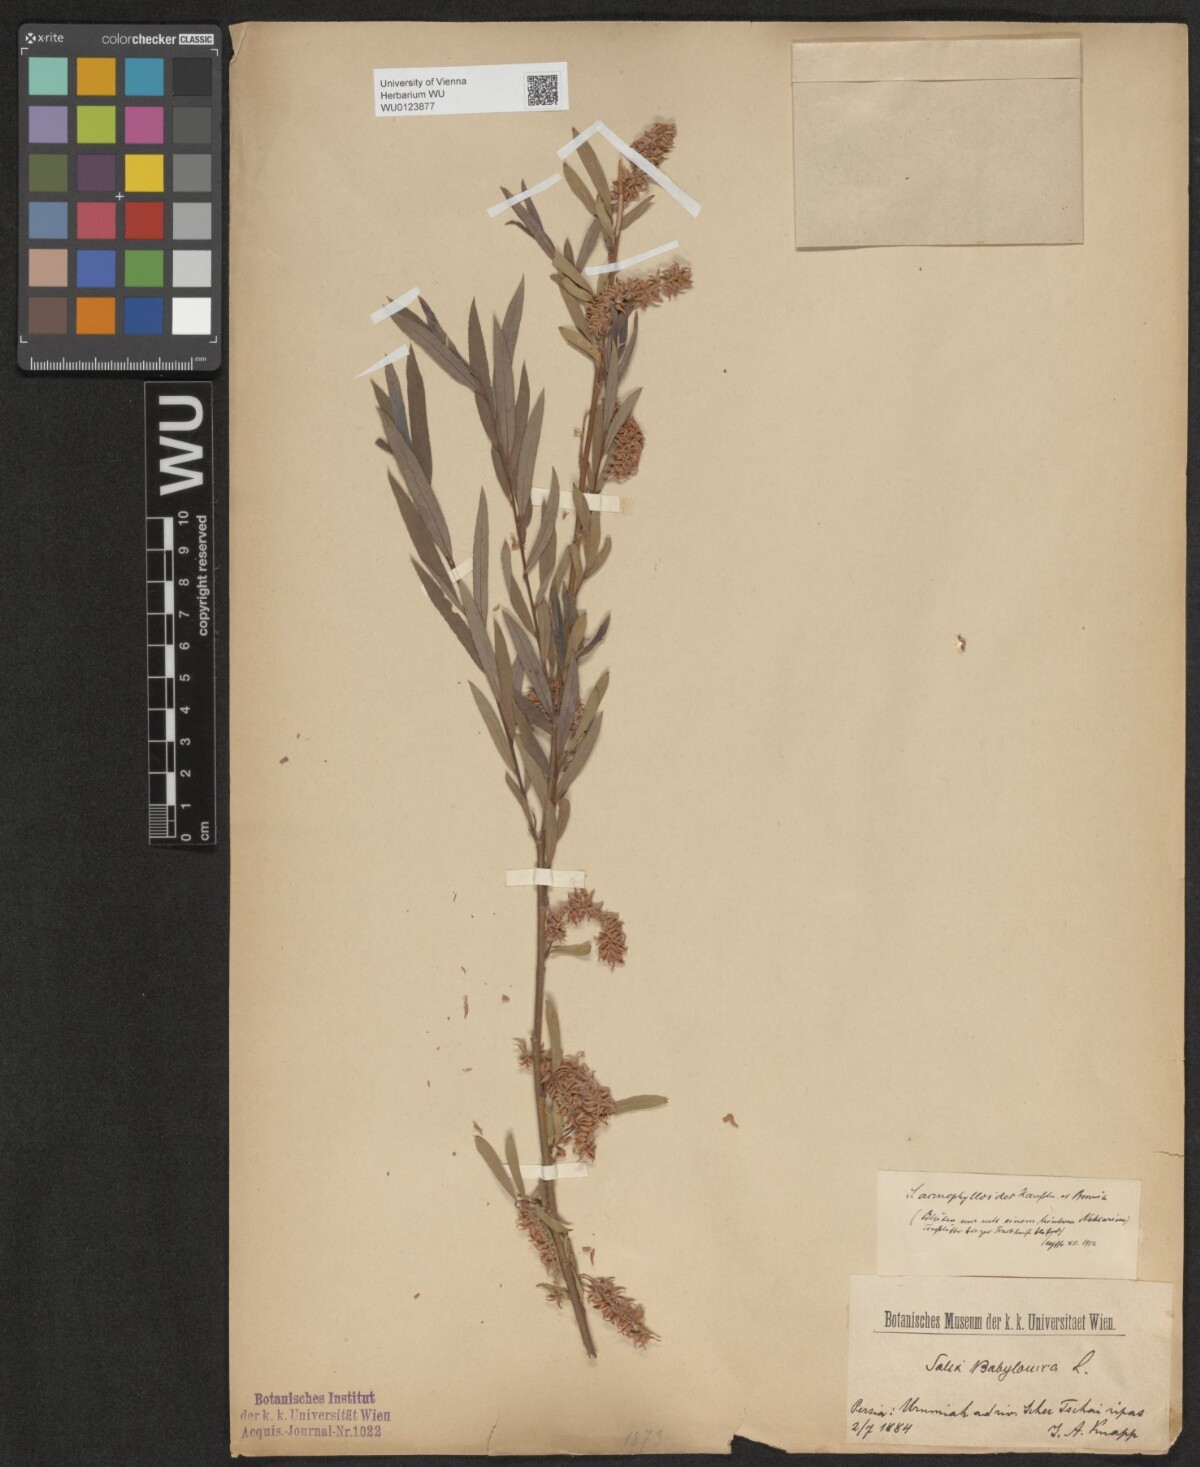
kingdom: Plantae
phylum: Tracheophyta
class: Magnoliopsida
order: Malpighiales
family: Salicaceae
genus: Salix
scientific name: Salix
